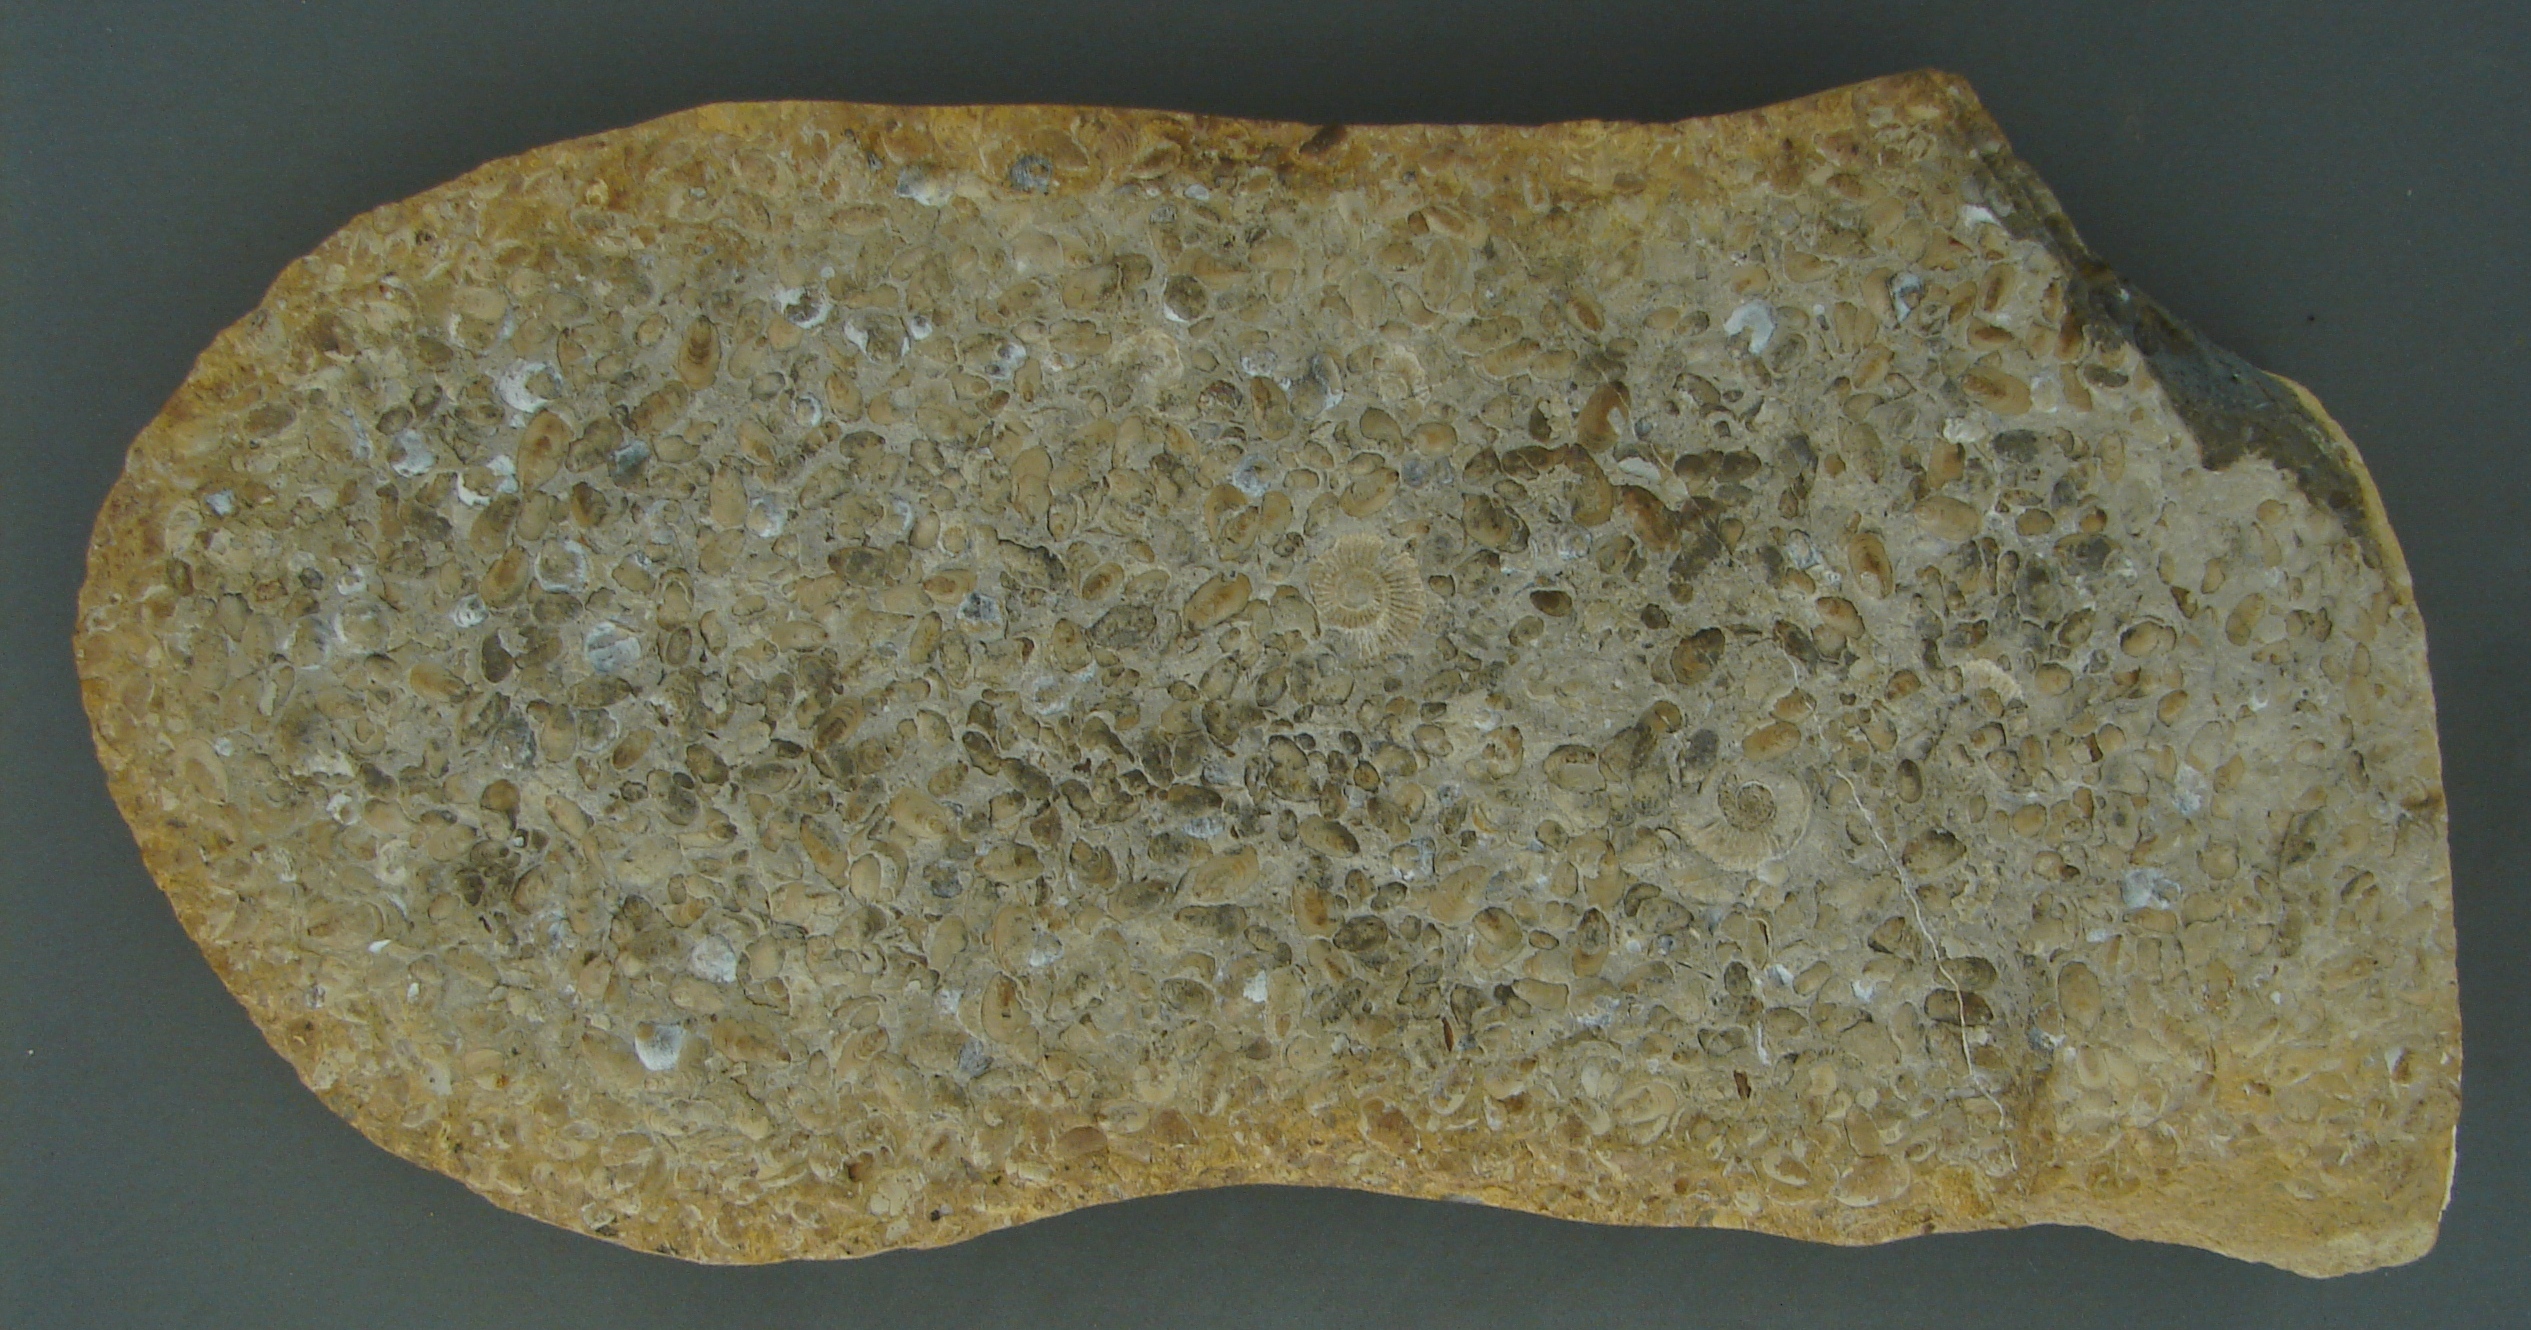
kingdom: Animalia
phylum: Brachiopoda
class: Lingulata
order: Lingulida
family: Lingulidae
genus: Lingularia
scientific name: Lingularia
